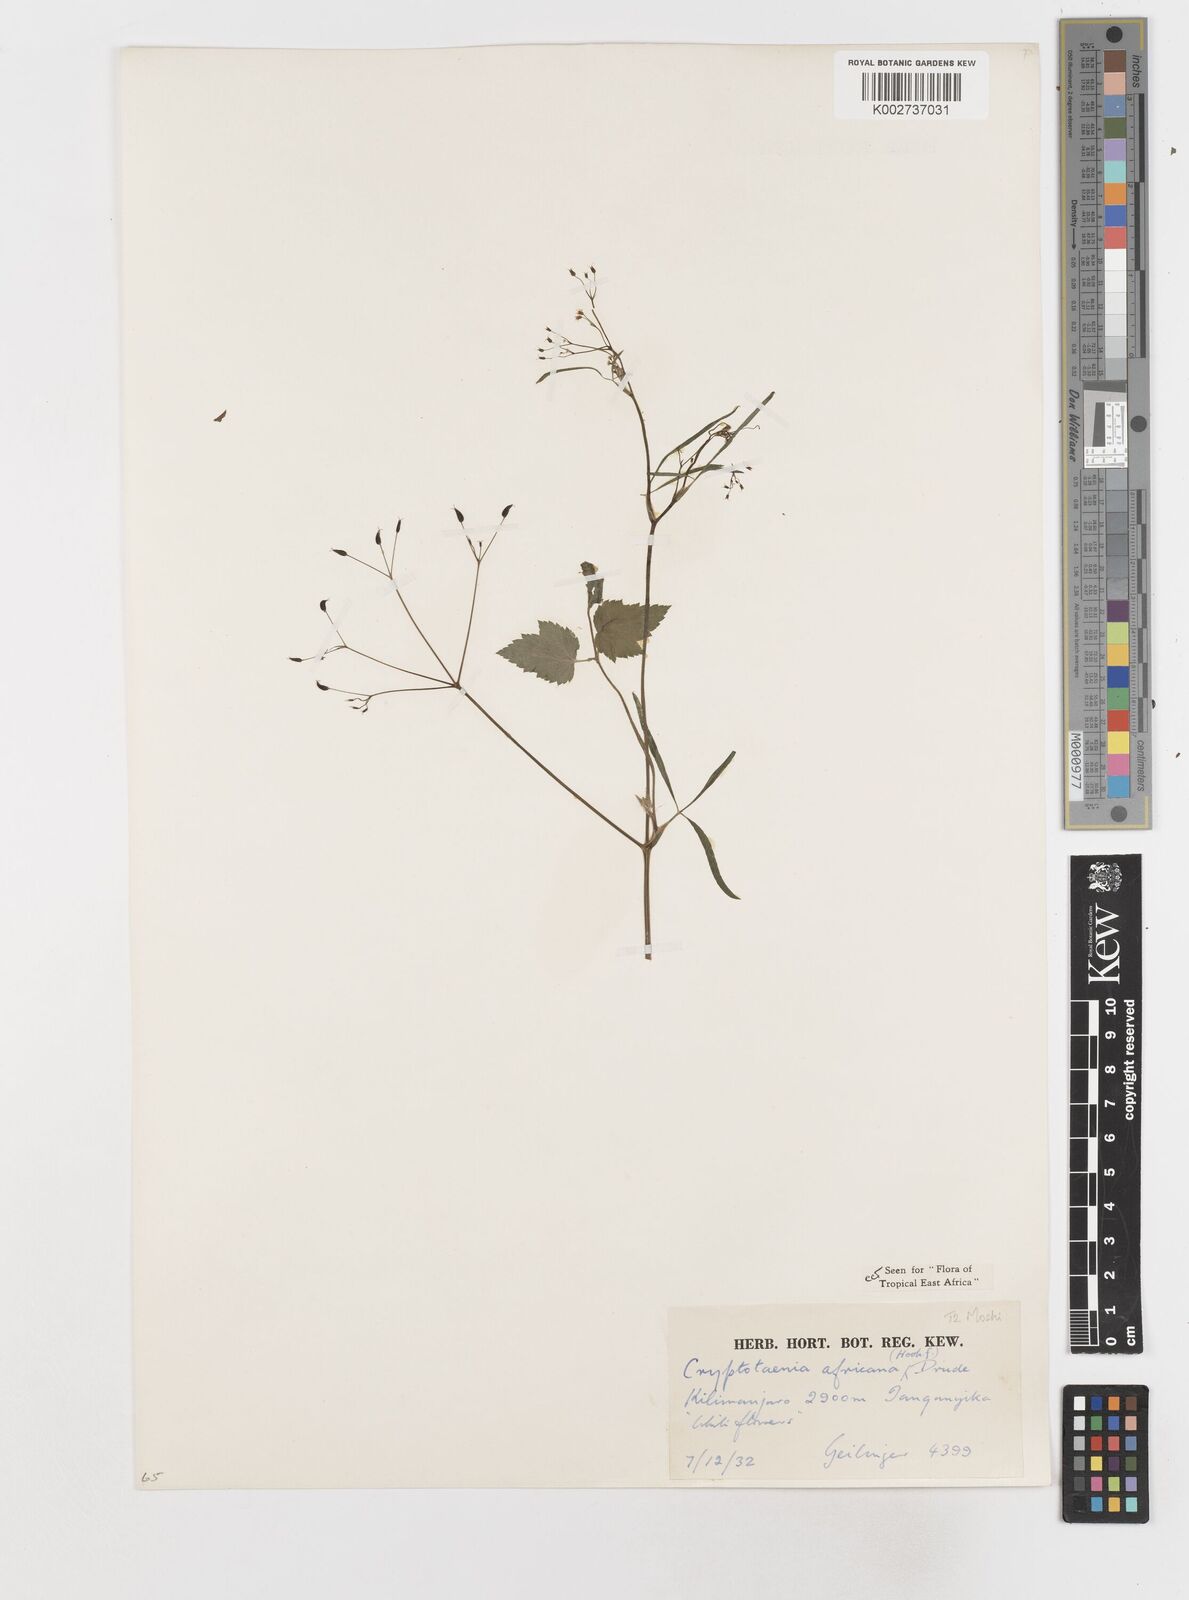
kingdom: Plantae
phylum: Tracheophyta
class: Magnoliopsida
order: Apiales
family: Apiaceae
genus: Cryptotaenia
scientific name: Cryptotaenia africana
